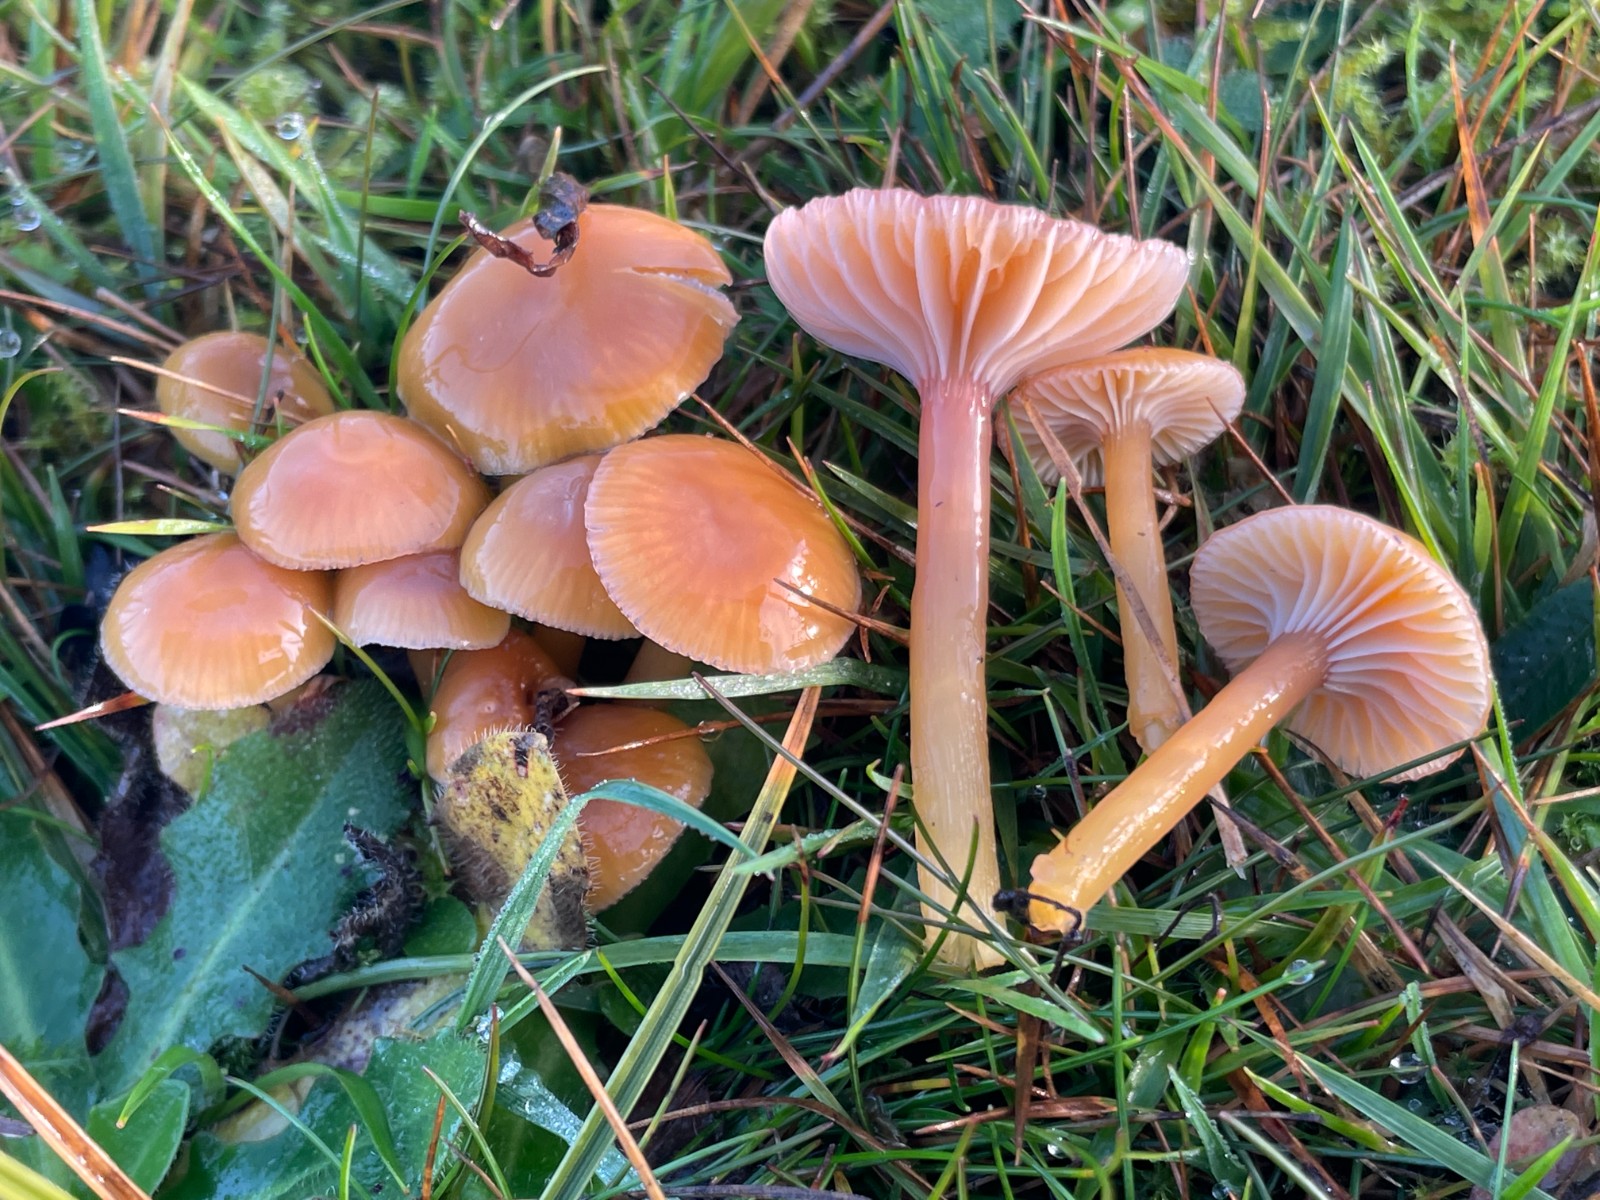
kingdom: Fungi
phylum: Basidiomycota
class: Agaricomycetes
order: Agaricales
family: Hygrophoraceae
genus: Gliophorus
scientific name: Gliophorus laetus
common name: brusk-vokshat
